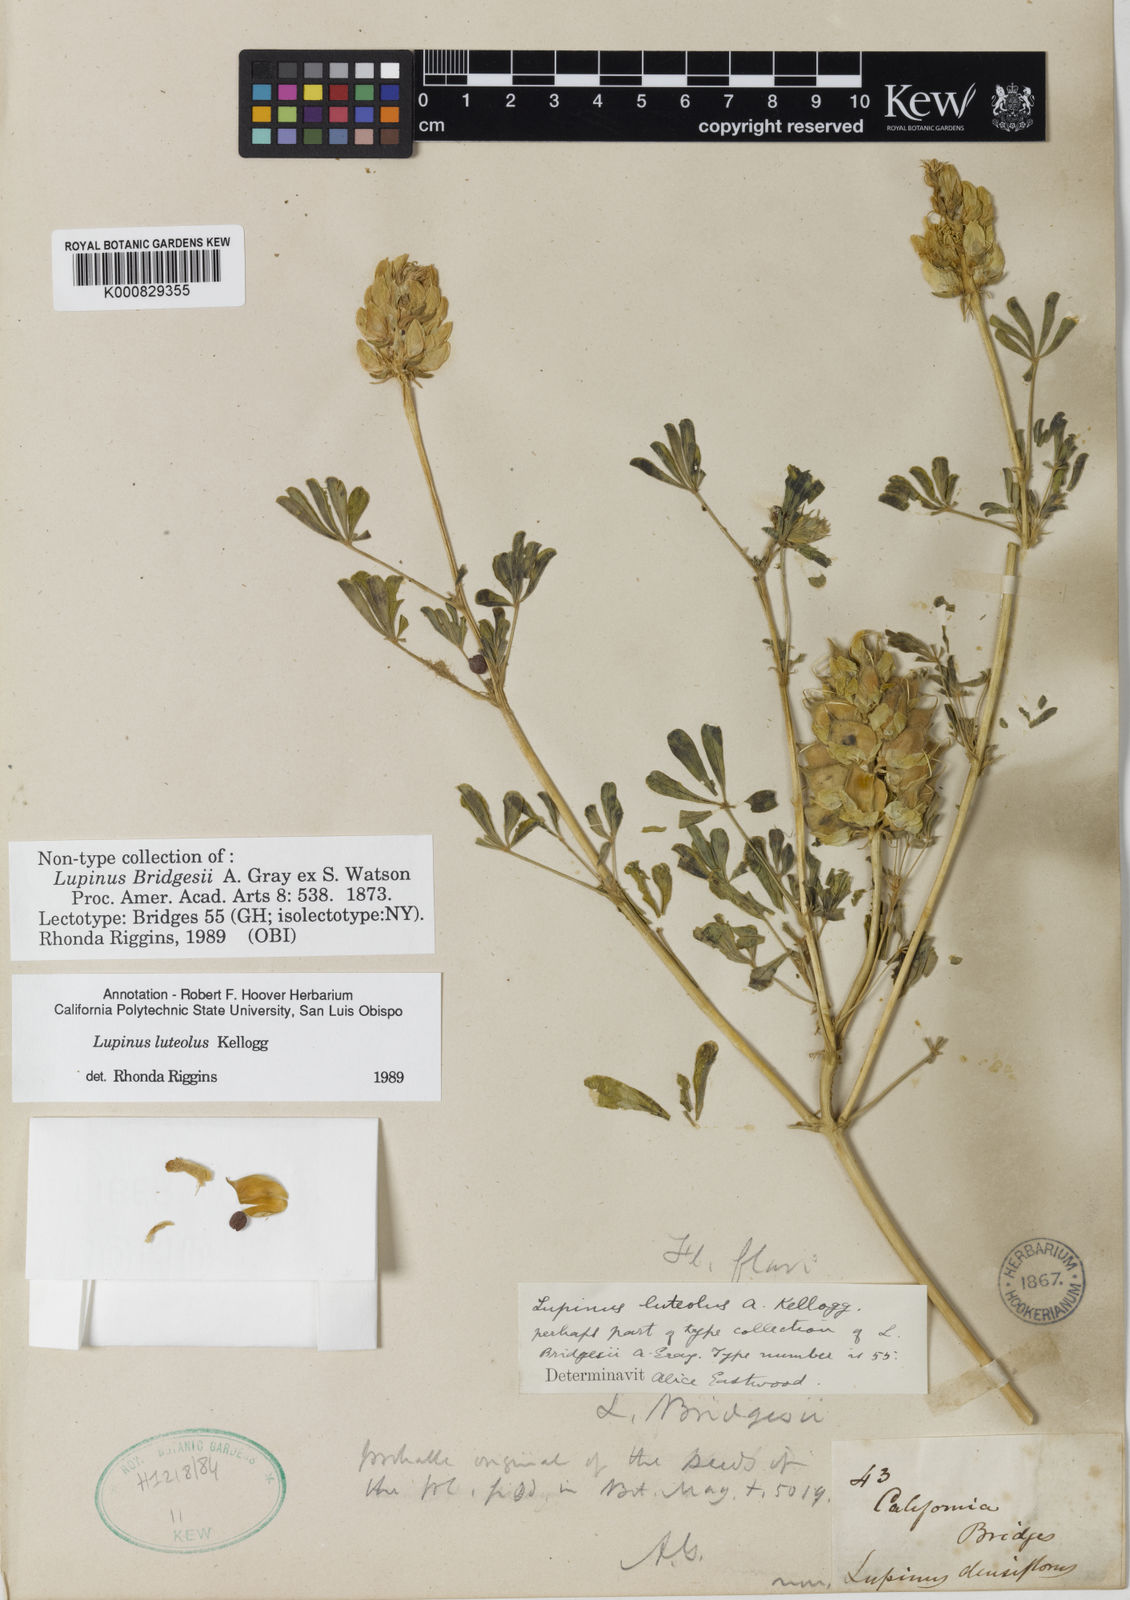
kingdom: Plantae
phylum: Tracheophyta
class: Magnoliopsida
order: Fabales
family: Fabaceae
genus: Lupinus
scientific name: Lupinus luteolus
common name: Butter lupine
